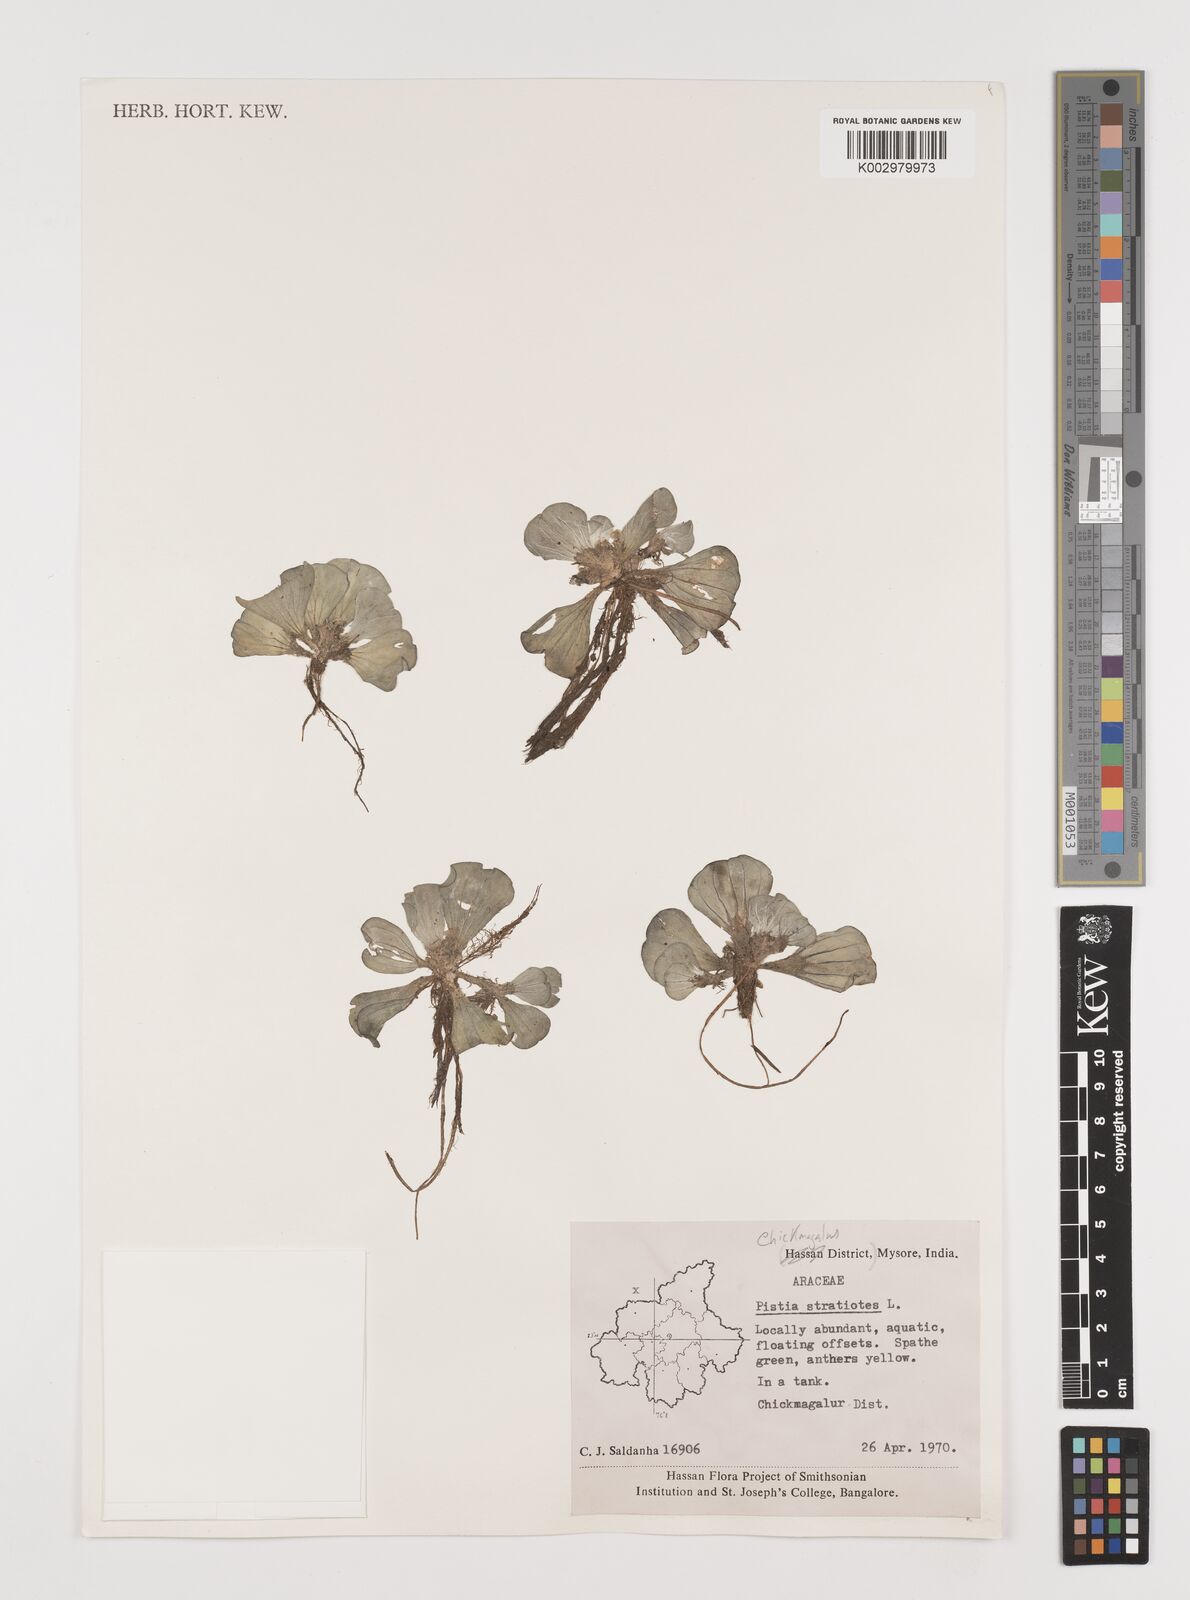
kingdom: Plantae
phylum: Tracheophyta
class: Liliopsida
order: Alismatales
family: Araceae
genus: Pistia
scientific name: Pistia stratiotes
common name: Water lettuce
